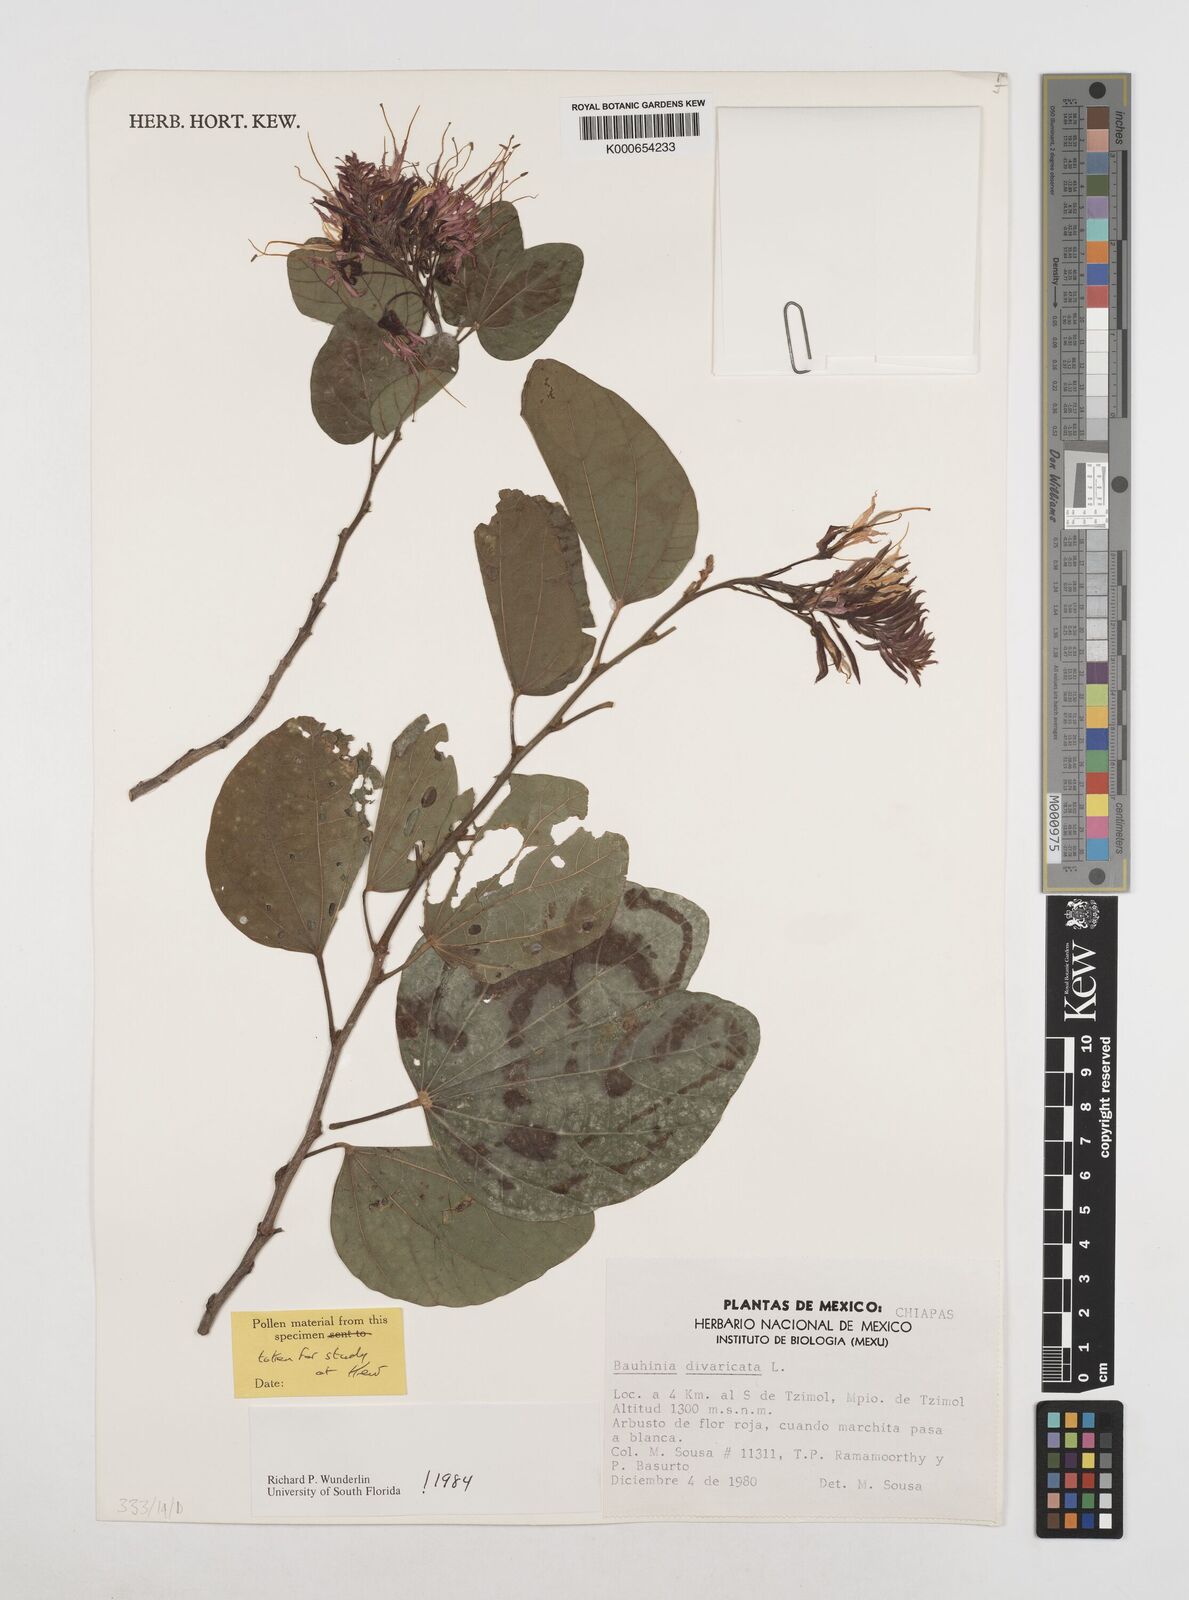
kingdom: Plantae
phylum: Tracheophyta
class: Magnoliopsida
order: Fabales
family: Fabaceae
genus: Bauhinia
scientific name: Bauhinia divaricata
